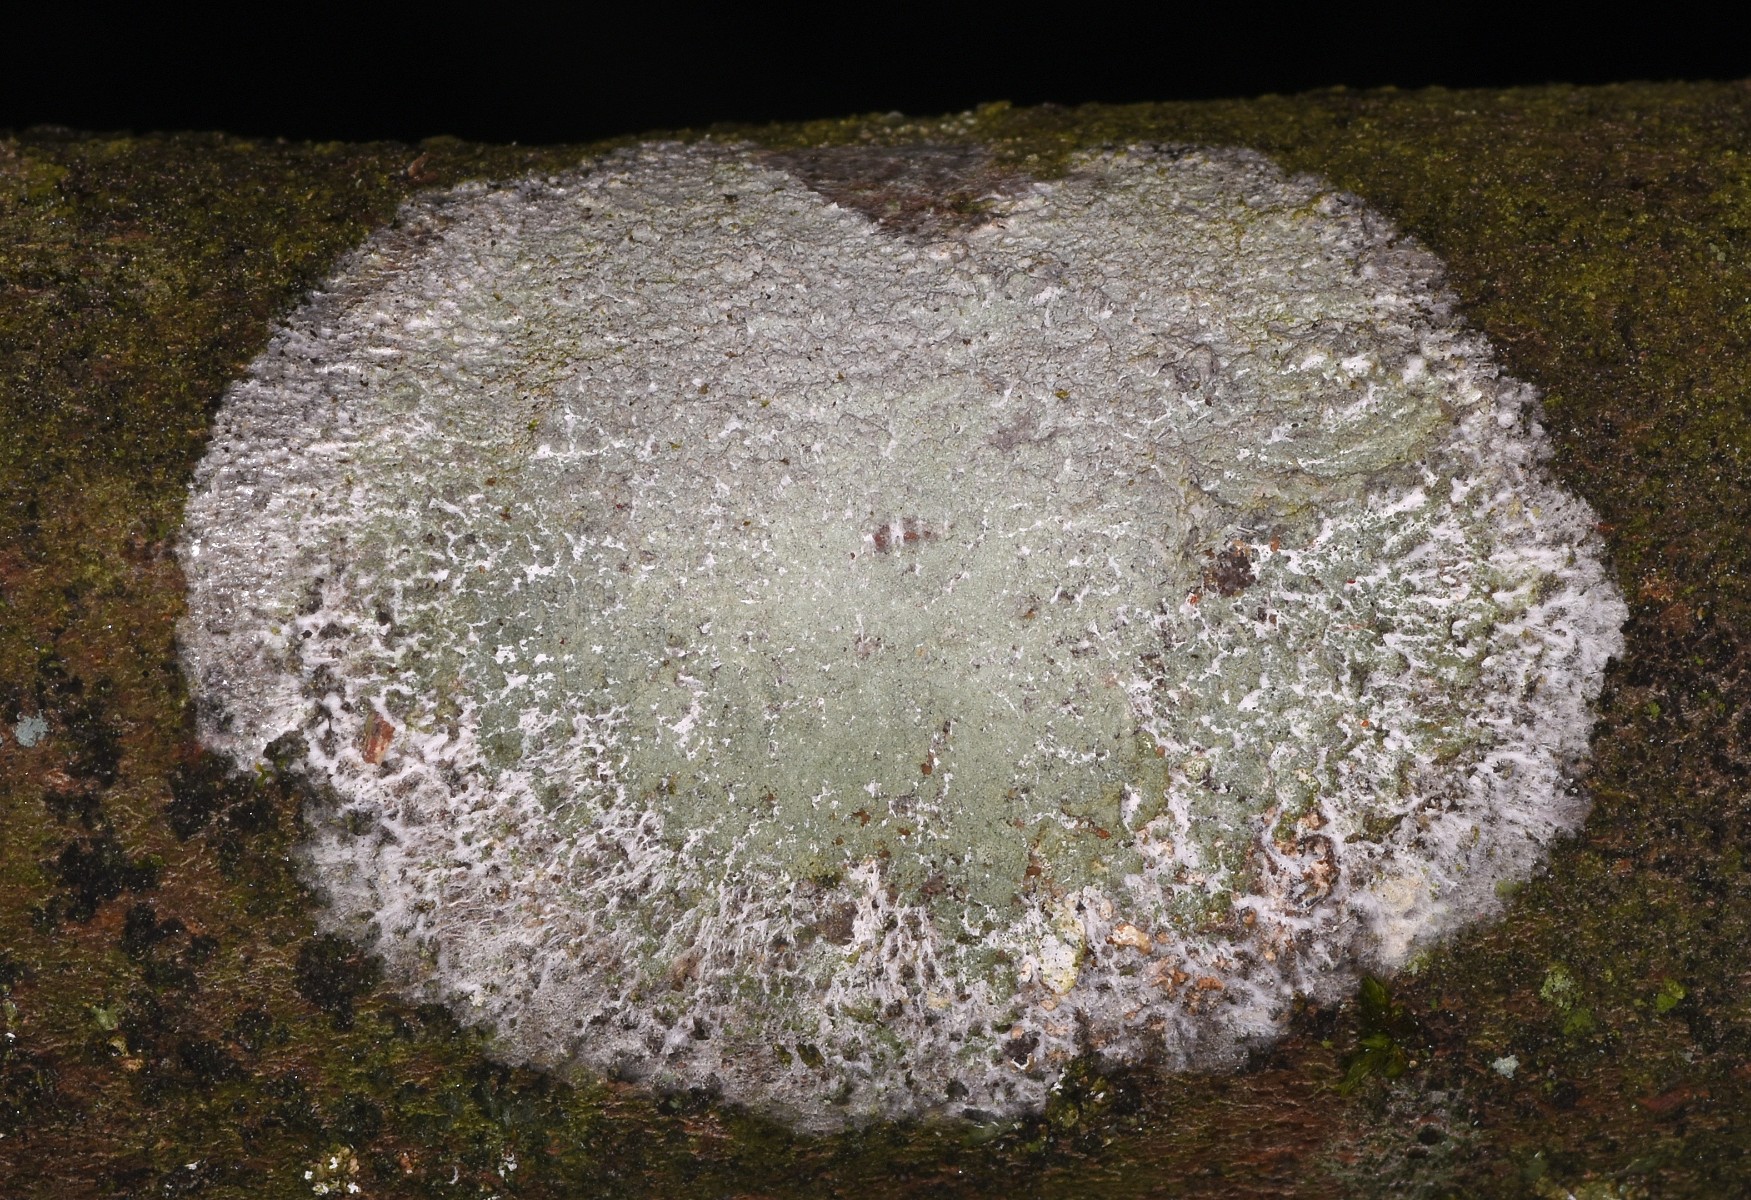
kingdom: Fungi
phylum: Ascomycota
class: Lecanoromycetes
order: Ostropales
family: Phlyctidaceae
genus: Phlyctis
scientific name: Phlyctis argena
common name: almindelig sølvlav
